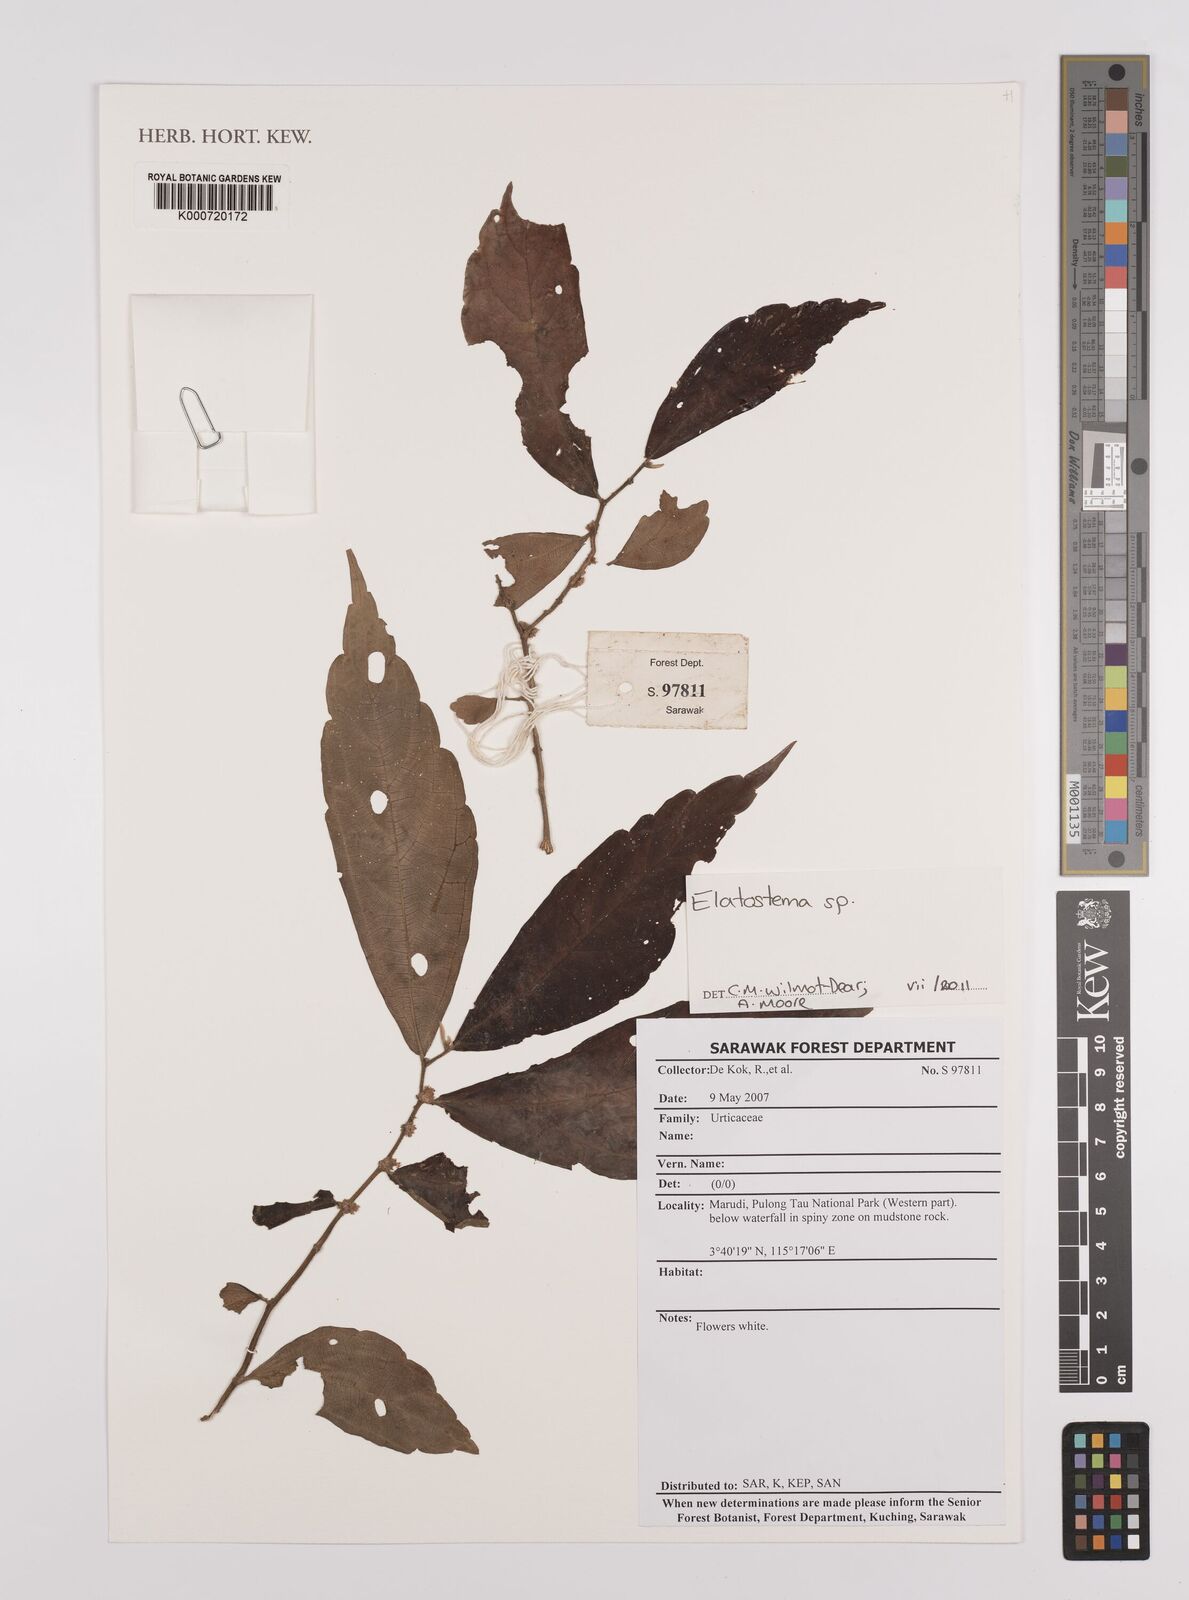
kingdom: Plantae
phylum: Tracheophyta
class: Magnoliopsida
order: Rosales
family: Urticaceae
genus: Elatostema
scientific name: Elatostema
